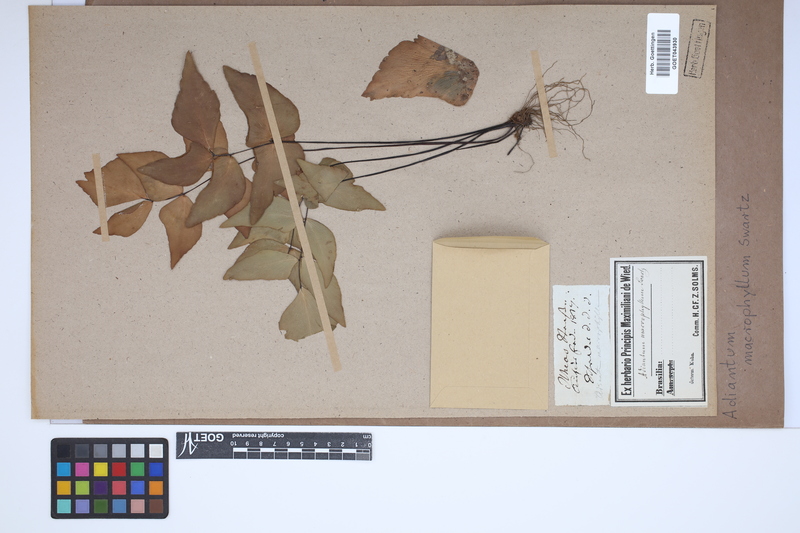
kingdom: Plantae
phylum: Tracheophyta
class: Polypodiopsida
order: Polypodiales
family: Pteridaceae
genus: Adiantum
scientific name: Adiantum macrophyllum
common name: Largeleaf maidenhair
